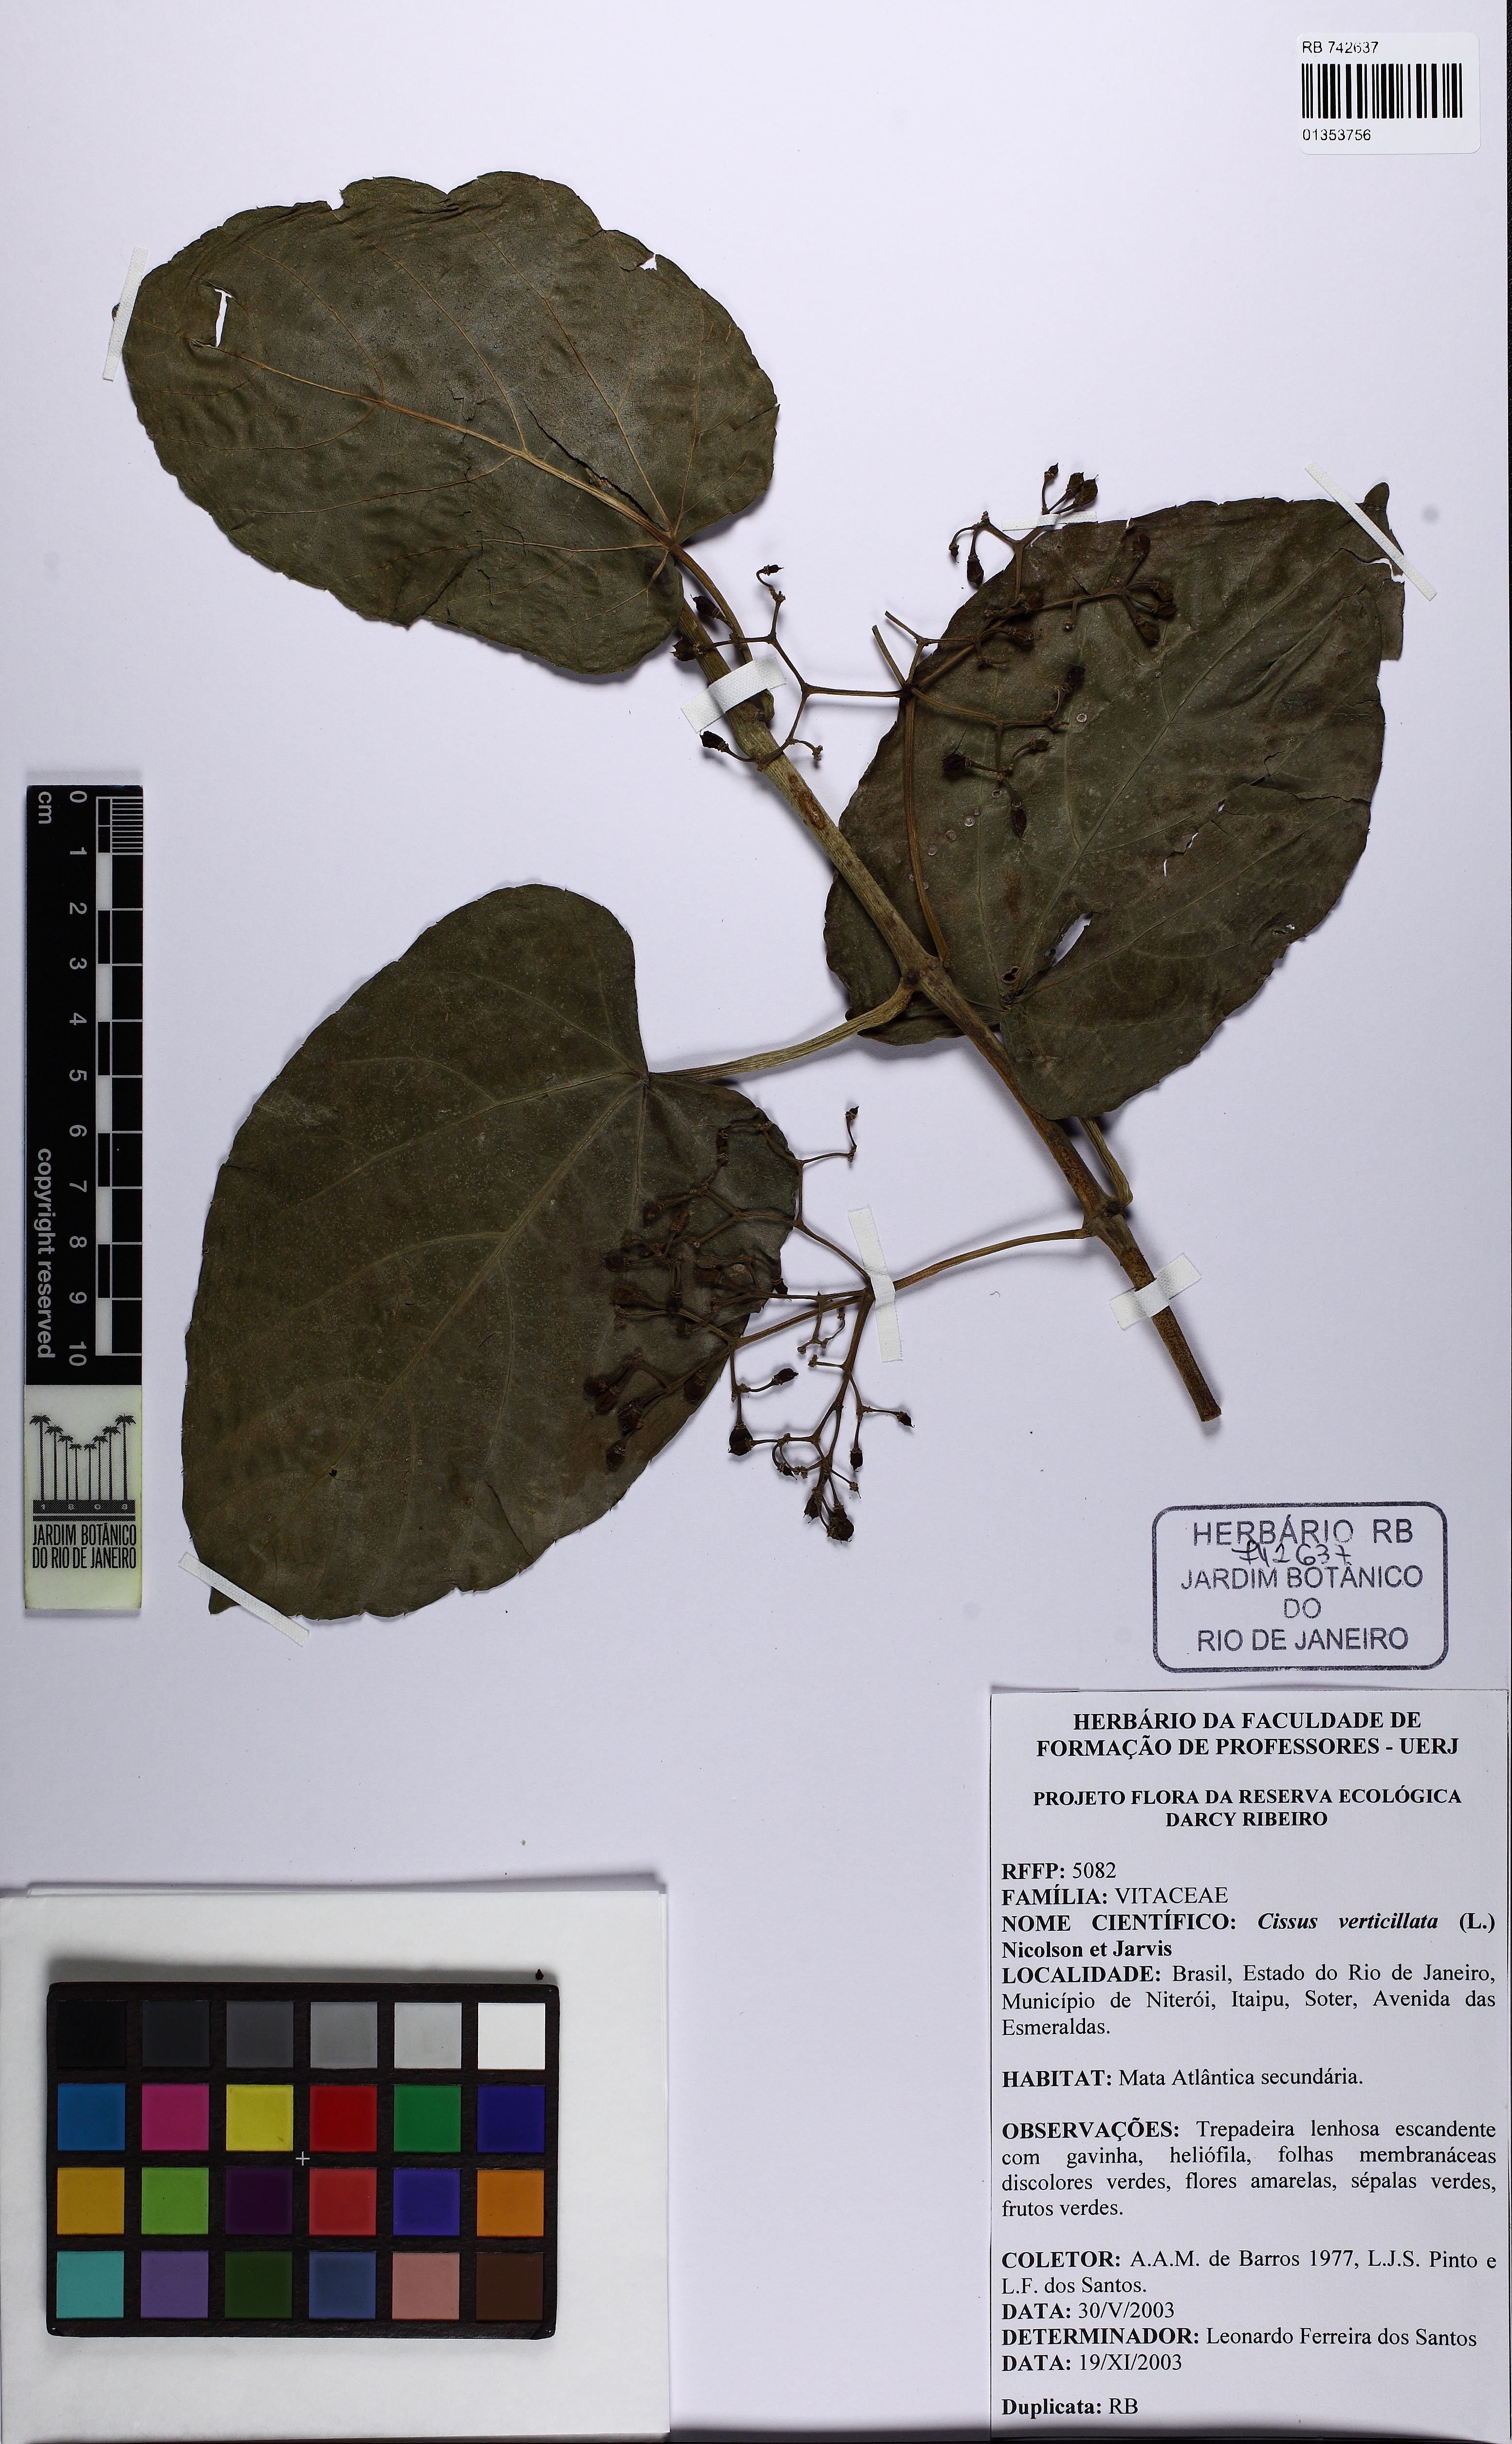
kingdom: Plantae
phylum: Tracheophyta
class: Magnoliopsida
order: Vitales
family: Vitaceae
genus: Cissus
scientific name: Cissus verticillata
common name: Princess vine
